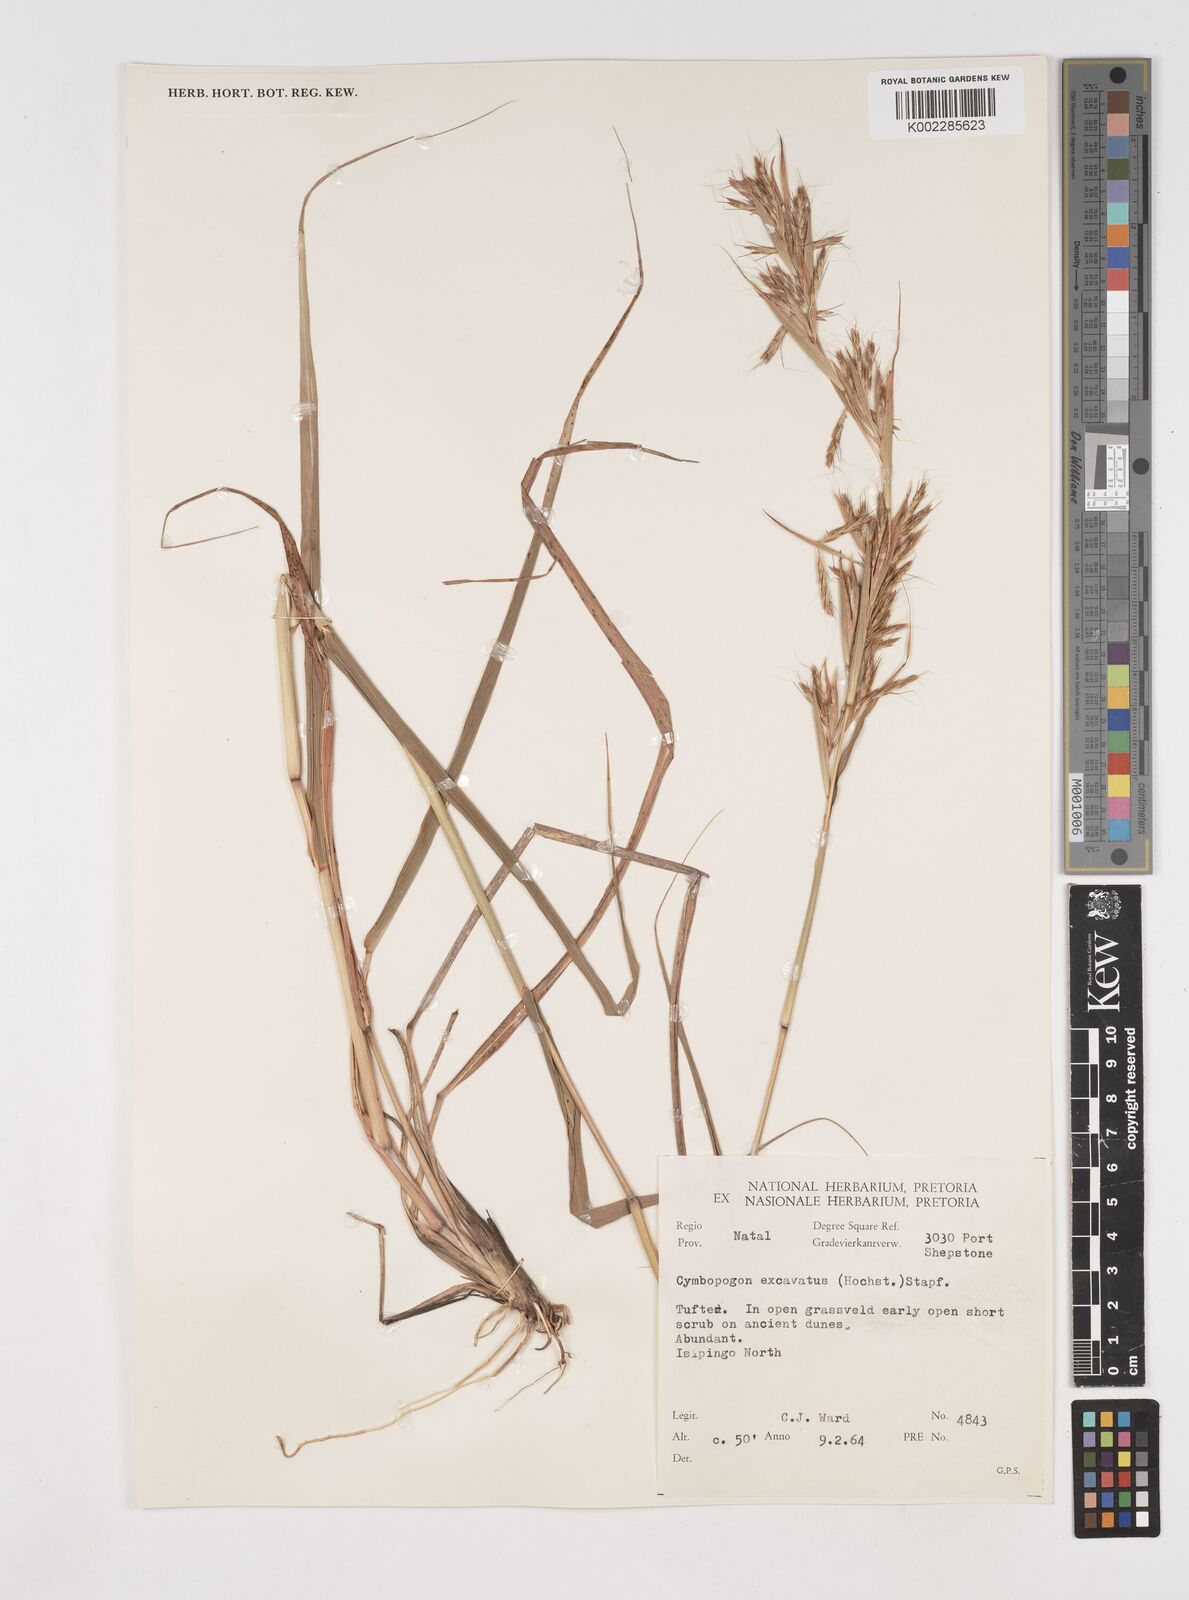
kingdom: Plantae
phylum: Tracheophyta
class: Liliopsida
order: Poales
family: Poaceae
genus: Cymbopogon
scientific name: Cymbopogon caesius
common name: Kachi grass
